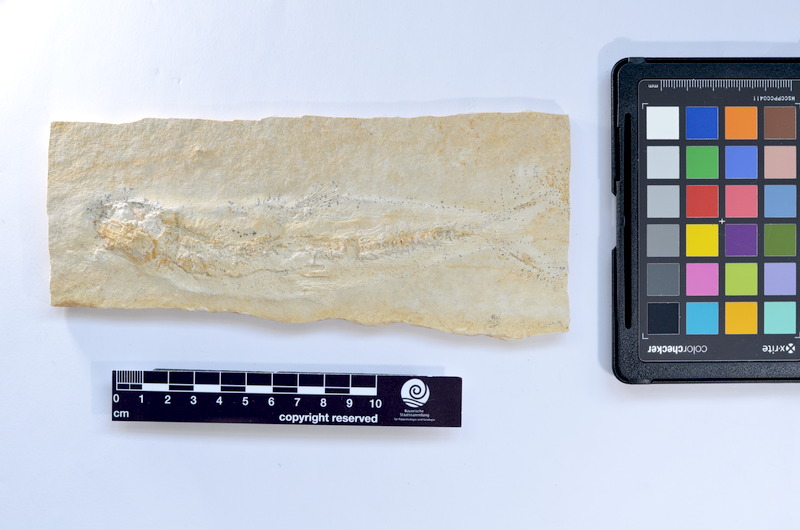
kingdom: Animalia
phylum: Chordata
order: Elopiformes
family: Anaethalionidae
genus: Anaethalion
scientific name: Anaethalion knorri
